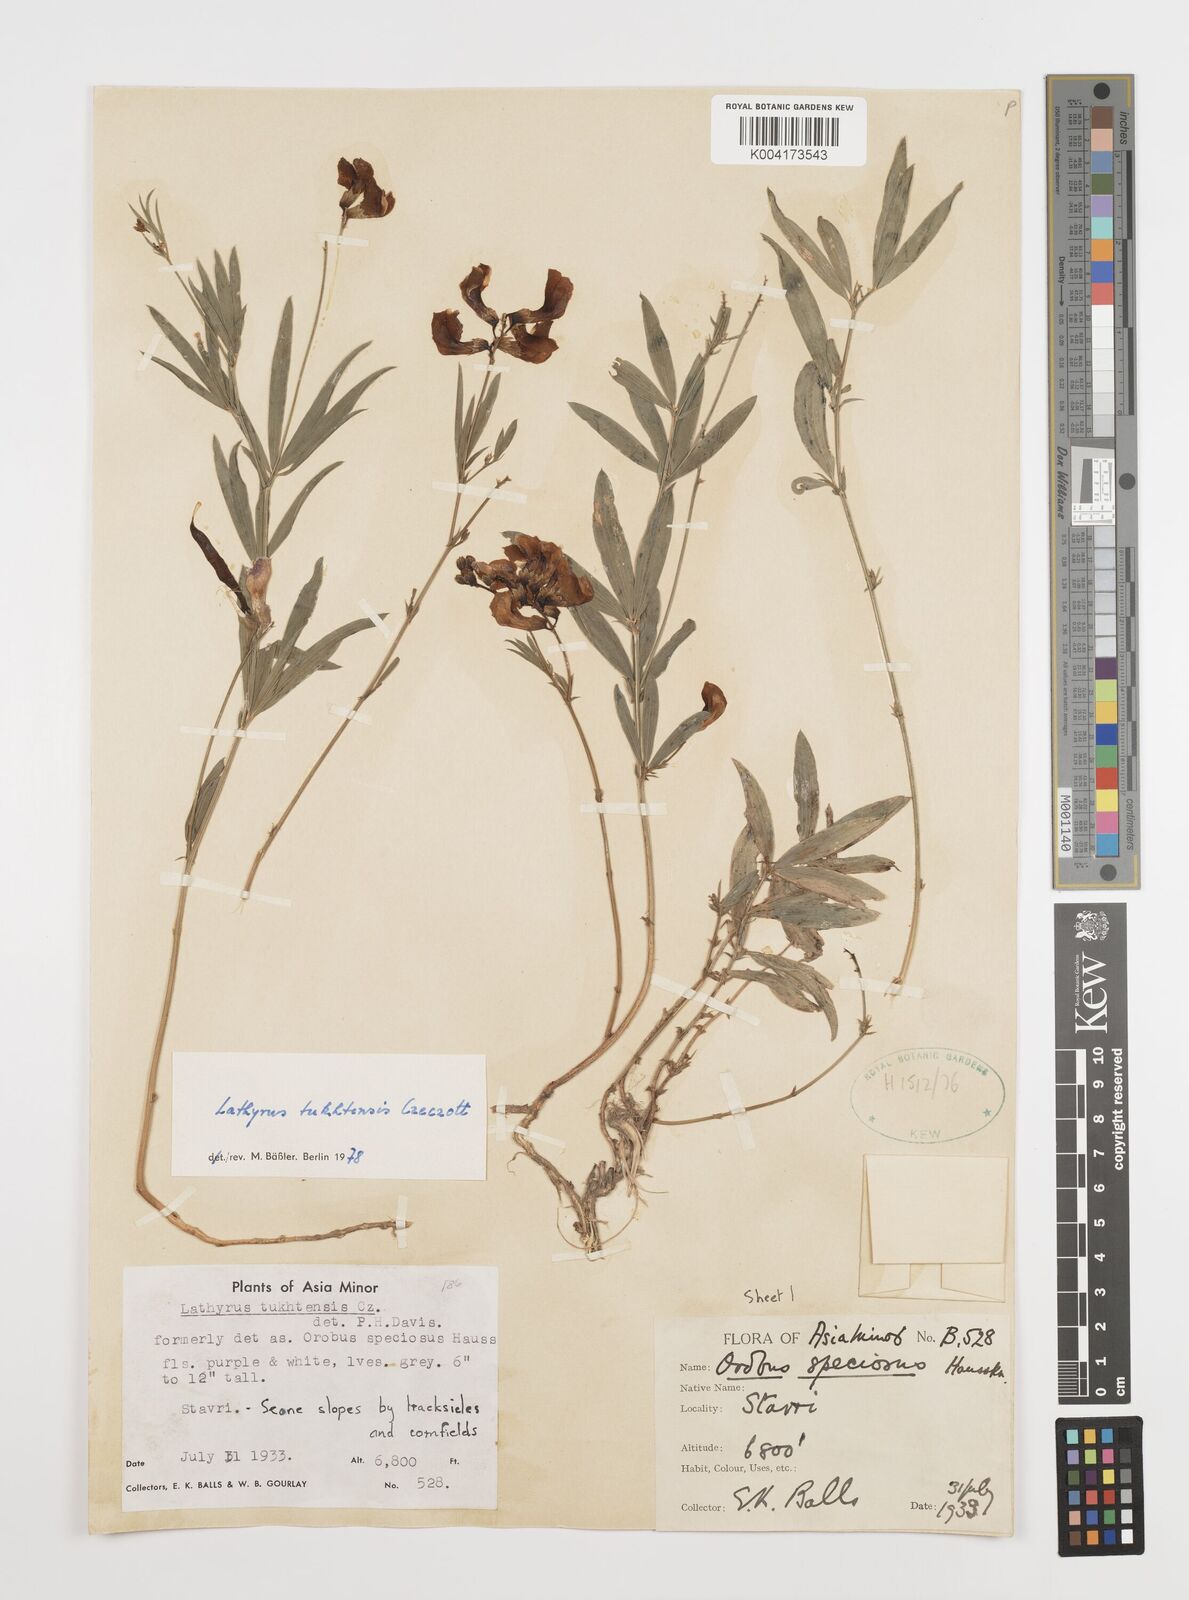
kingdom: Plantae
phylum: Tracheophyta
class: Magnoliopsida
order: Fabales
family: Fabaceae
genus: Lathyrus
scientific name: Lathyrus tukhtensis
